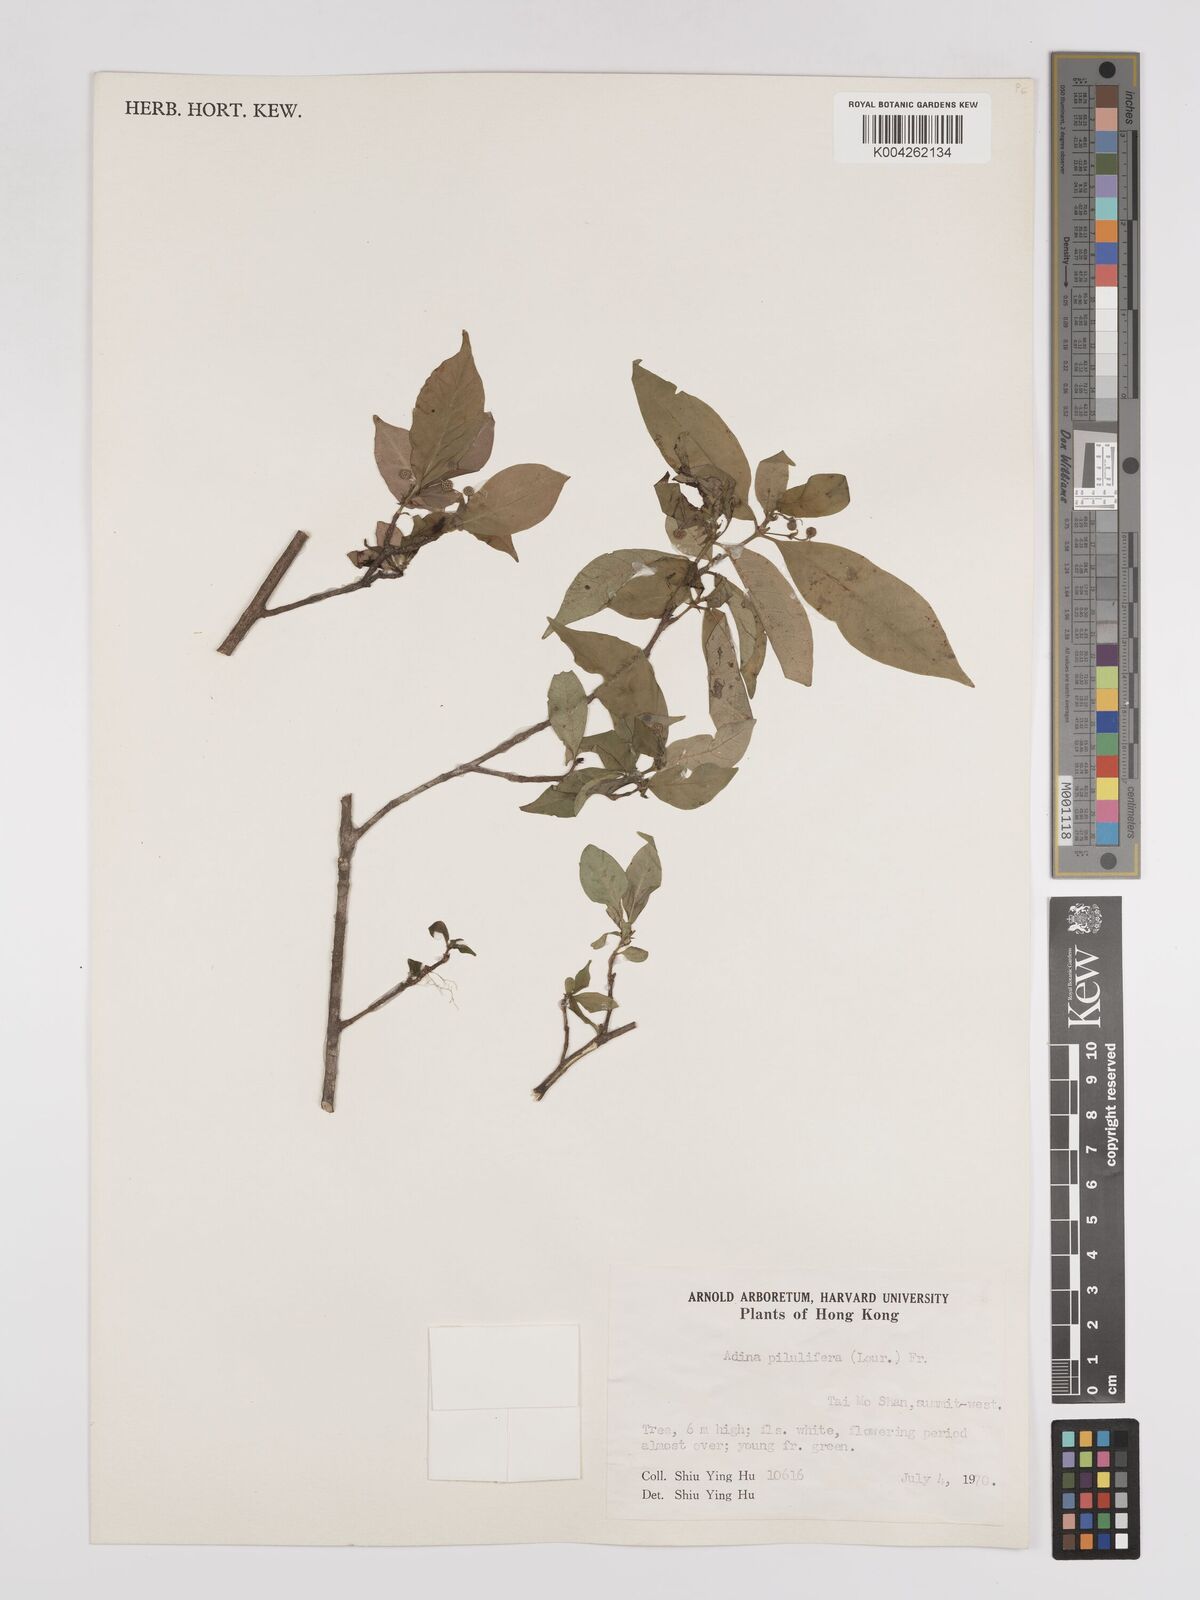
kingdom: Plantae
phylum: Tracheophyta
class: Magnoliopsida
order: Gentianales
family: Rubiaceae
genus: Adina
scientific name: Adina pilulifera
